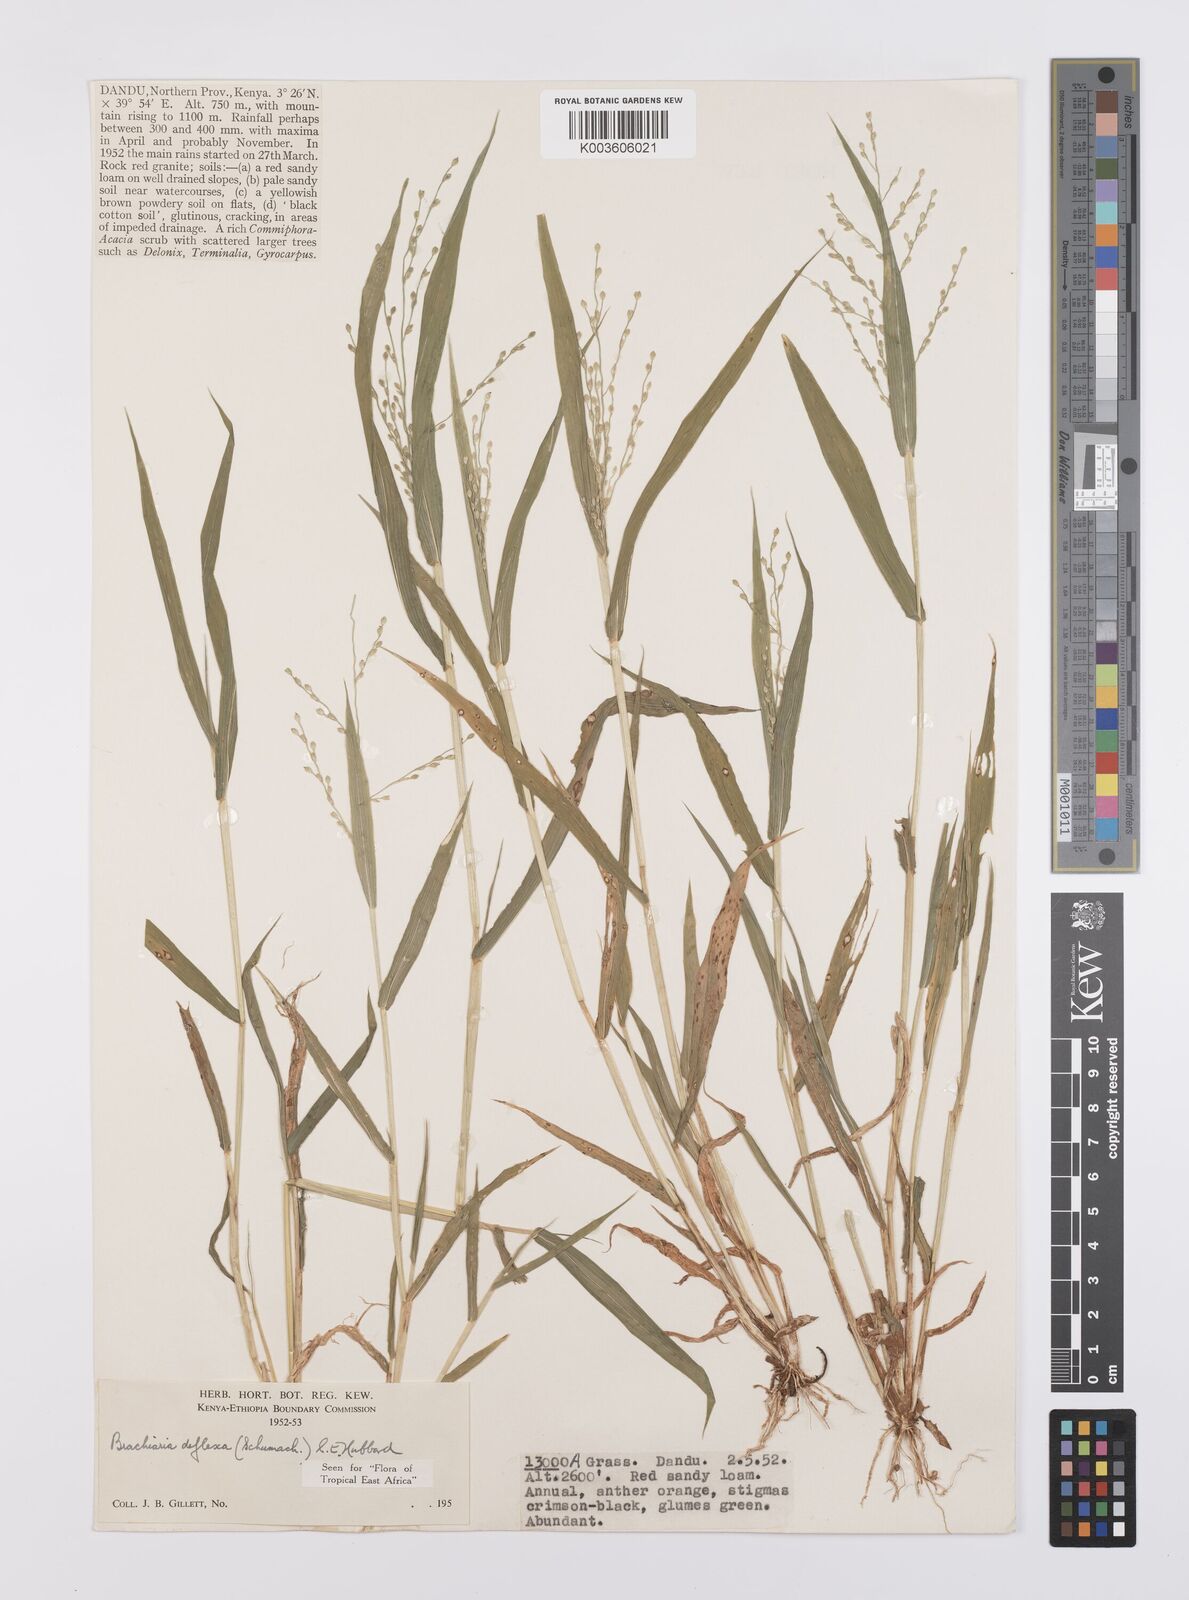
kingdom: Plantae
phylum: Tracheophyta
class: Liliopsida
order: Poales
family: Poaceae
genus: Urochloa
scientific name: Urochloa deflexa
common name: Guinea millet
